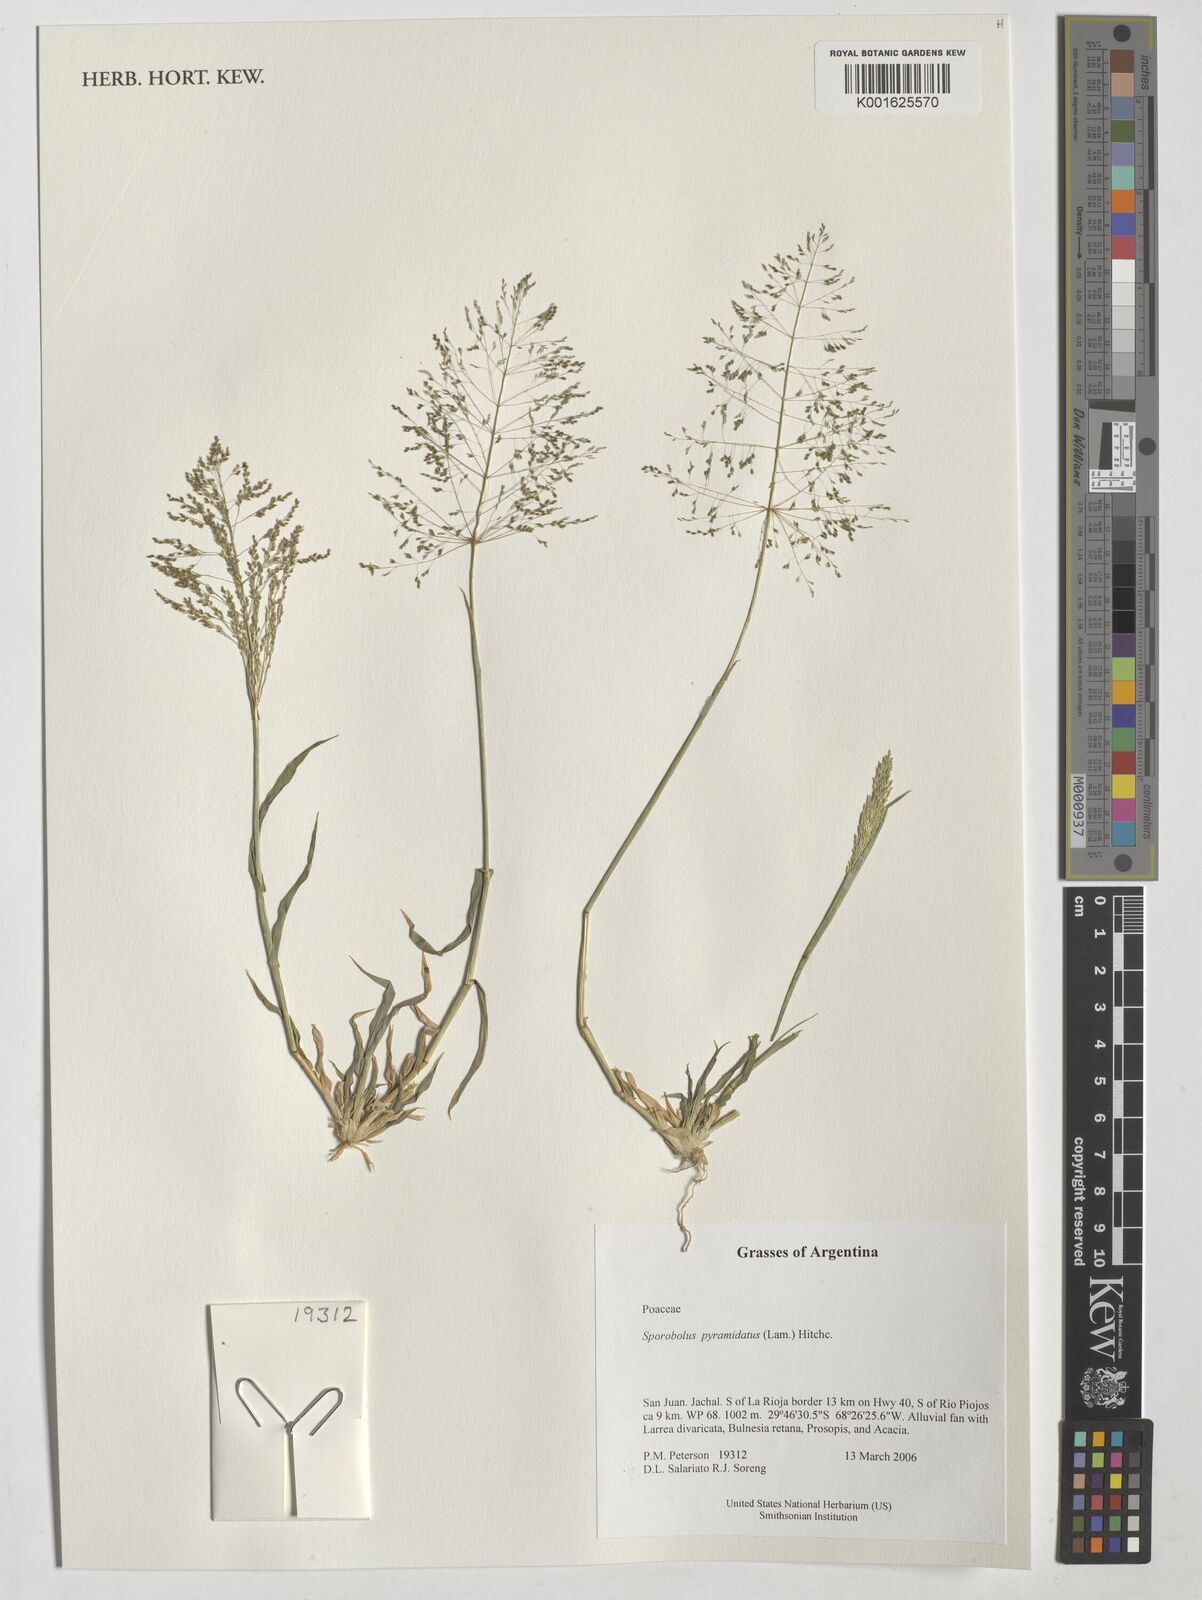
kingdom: Plantae
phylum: Tracheophyta
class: Liliopsida
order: Poales
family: Poaceae
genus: Sporobolus
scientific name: Sporobolus pyramidatus
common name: Whorled dropseed
